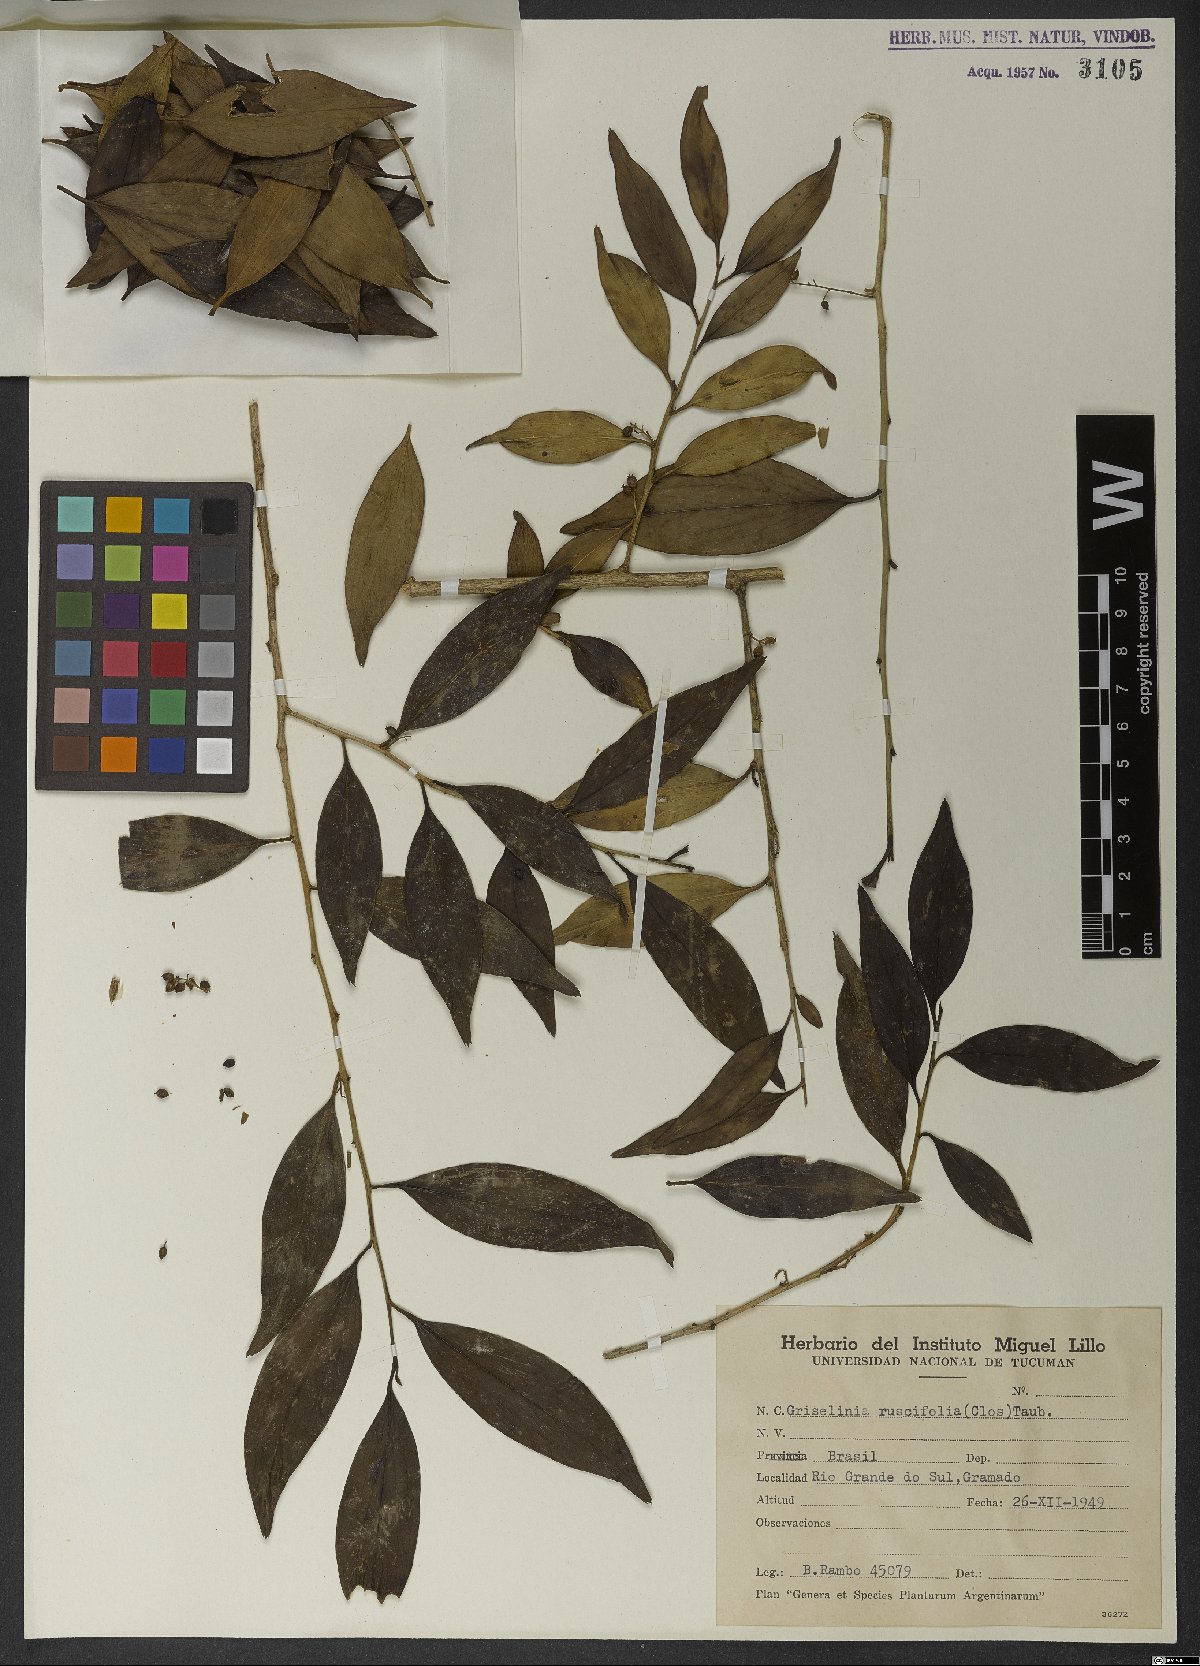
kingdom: Plantae
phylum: Tracheophyta
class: Magnoliopsida
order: Apiales
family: Griseliniaceae
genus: Griselinia
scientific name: Griselinia ruscifolia
